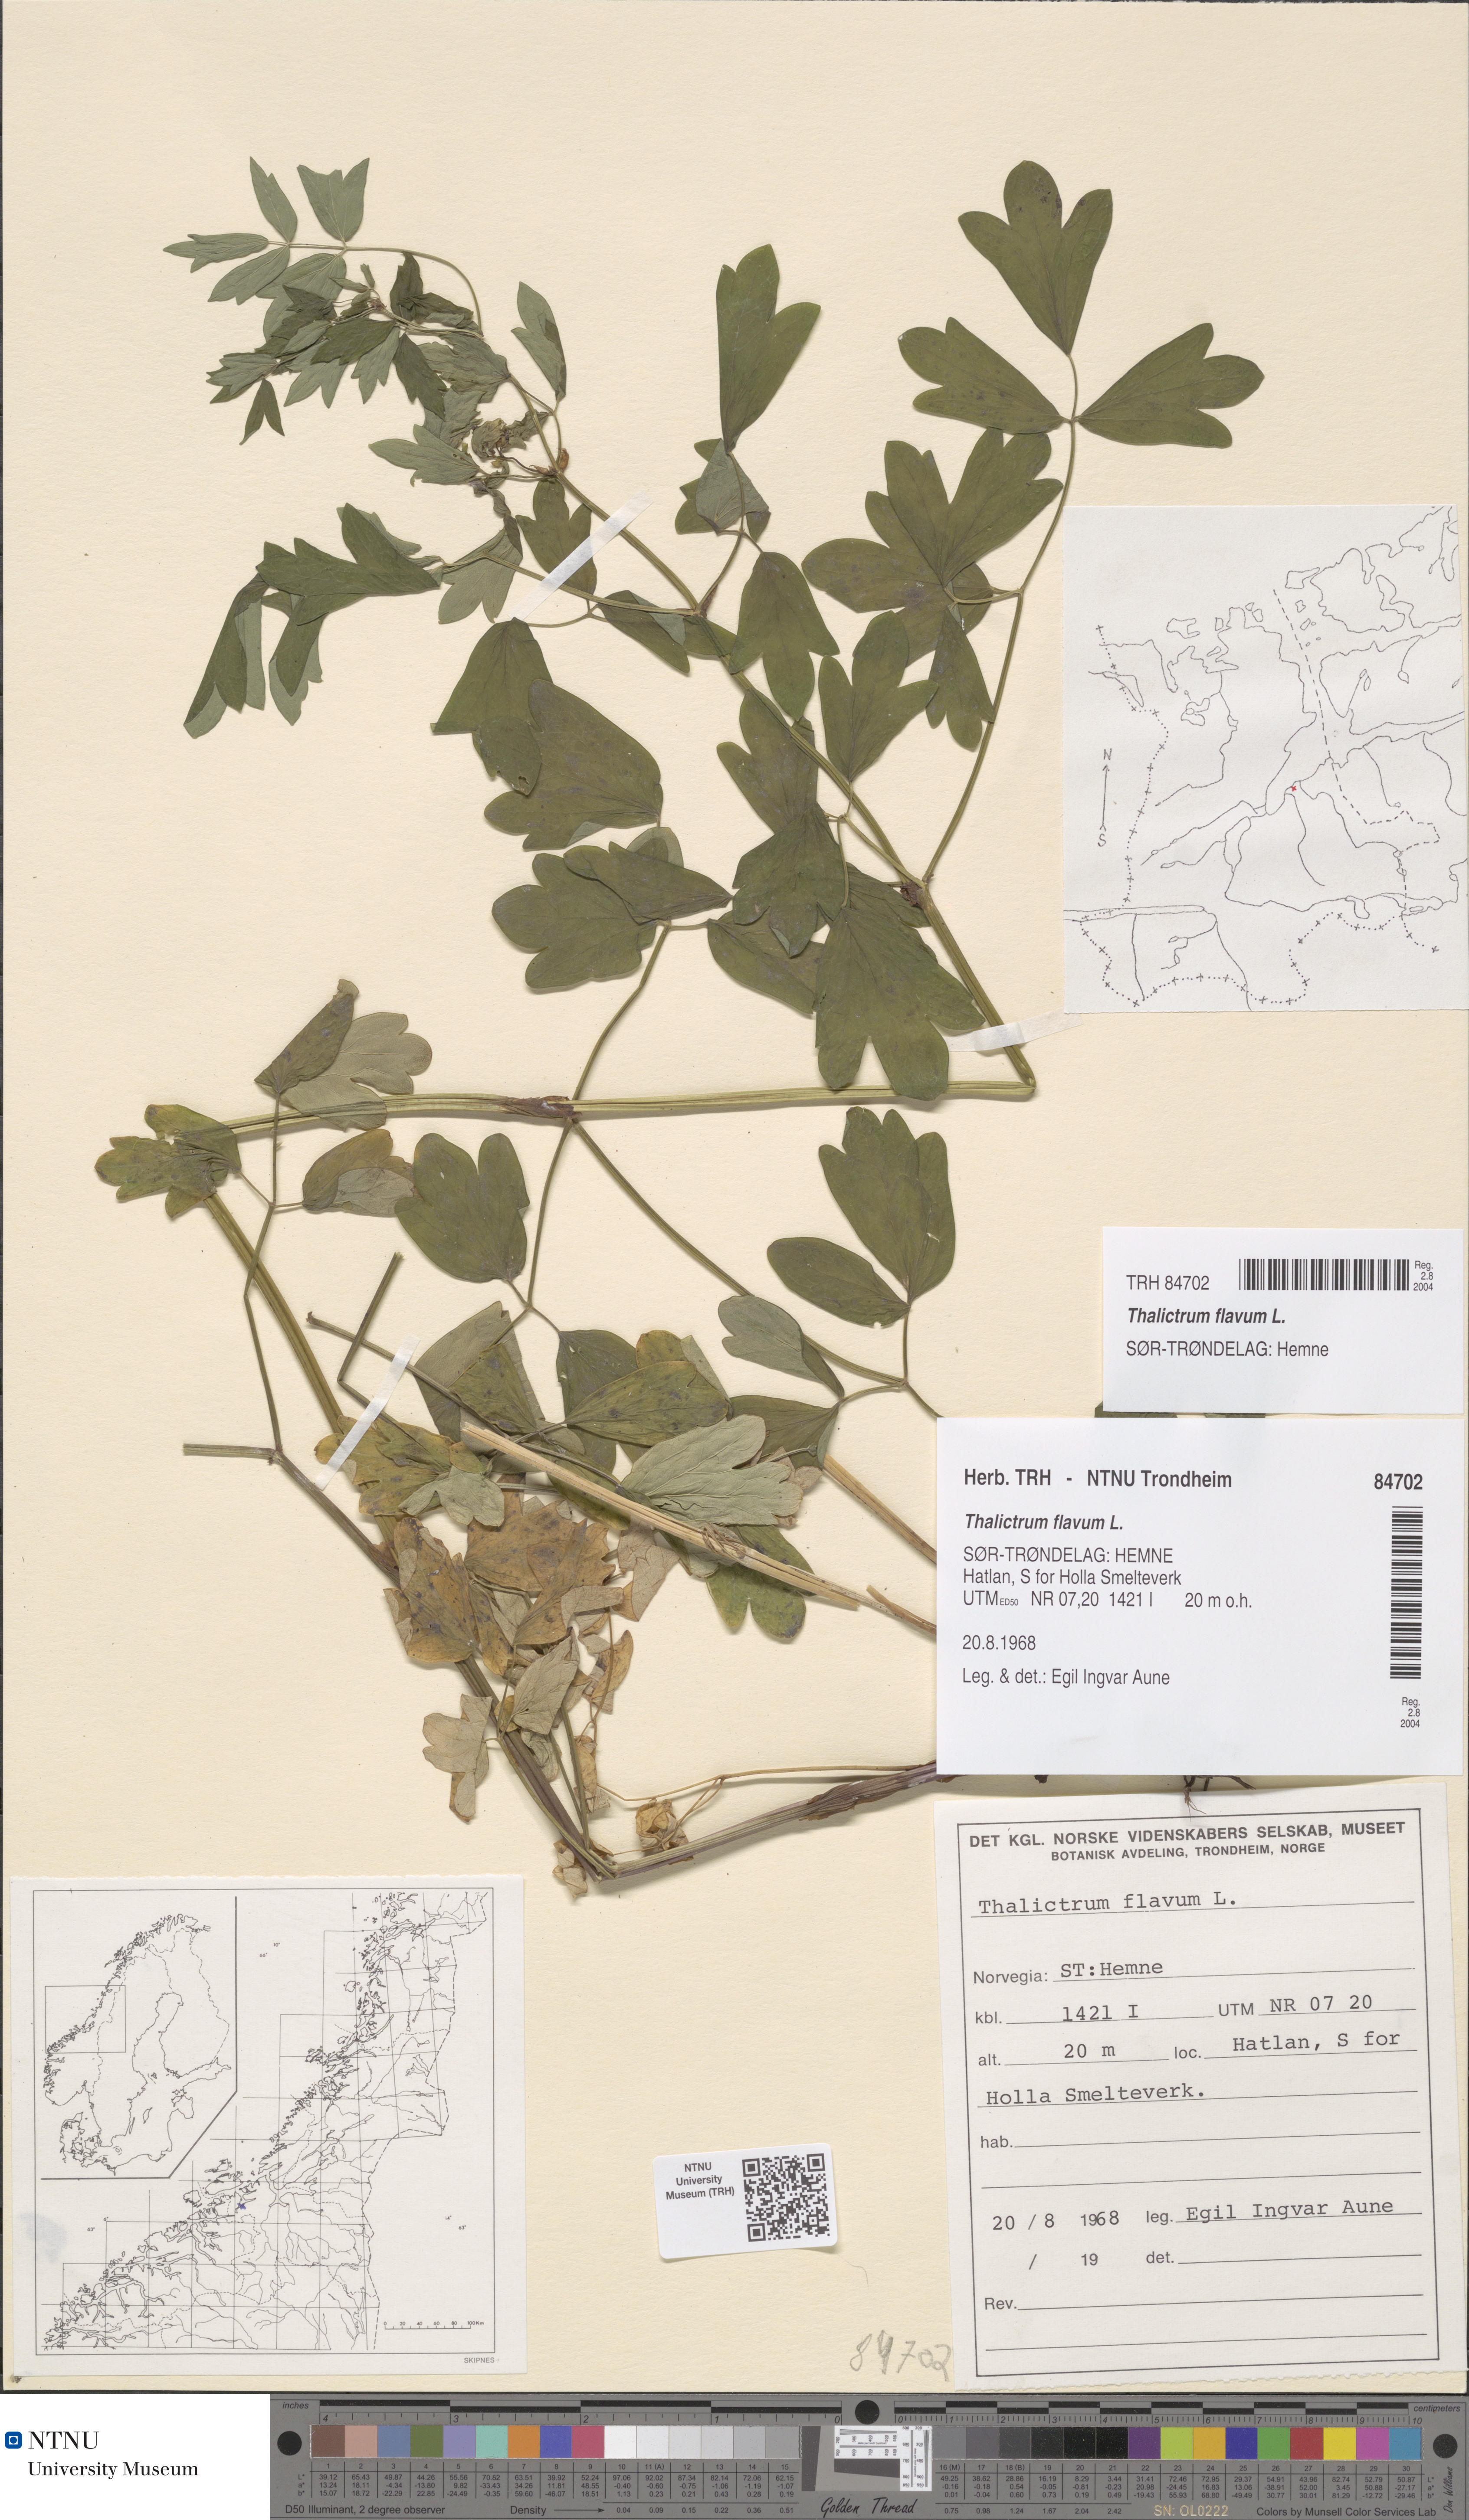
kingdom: Plantae
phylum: Tracheophyta
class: Magnoliopsida
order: Ranunculales
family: Ranunculaceae
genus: Thalictrum
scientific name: Thalictrum flavum
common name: Common meadow-rue
